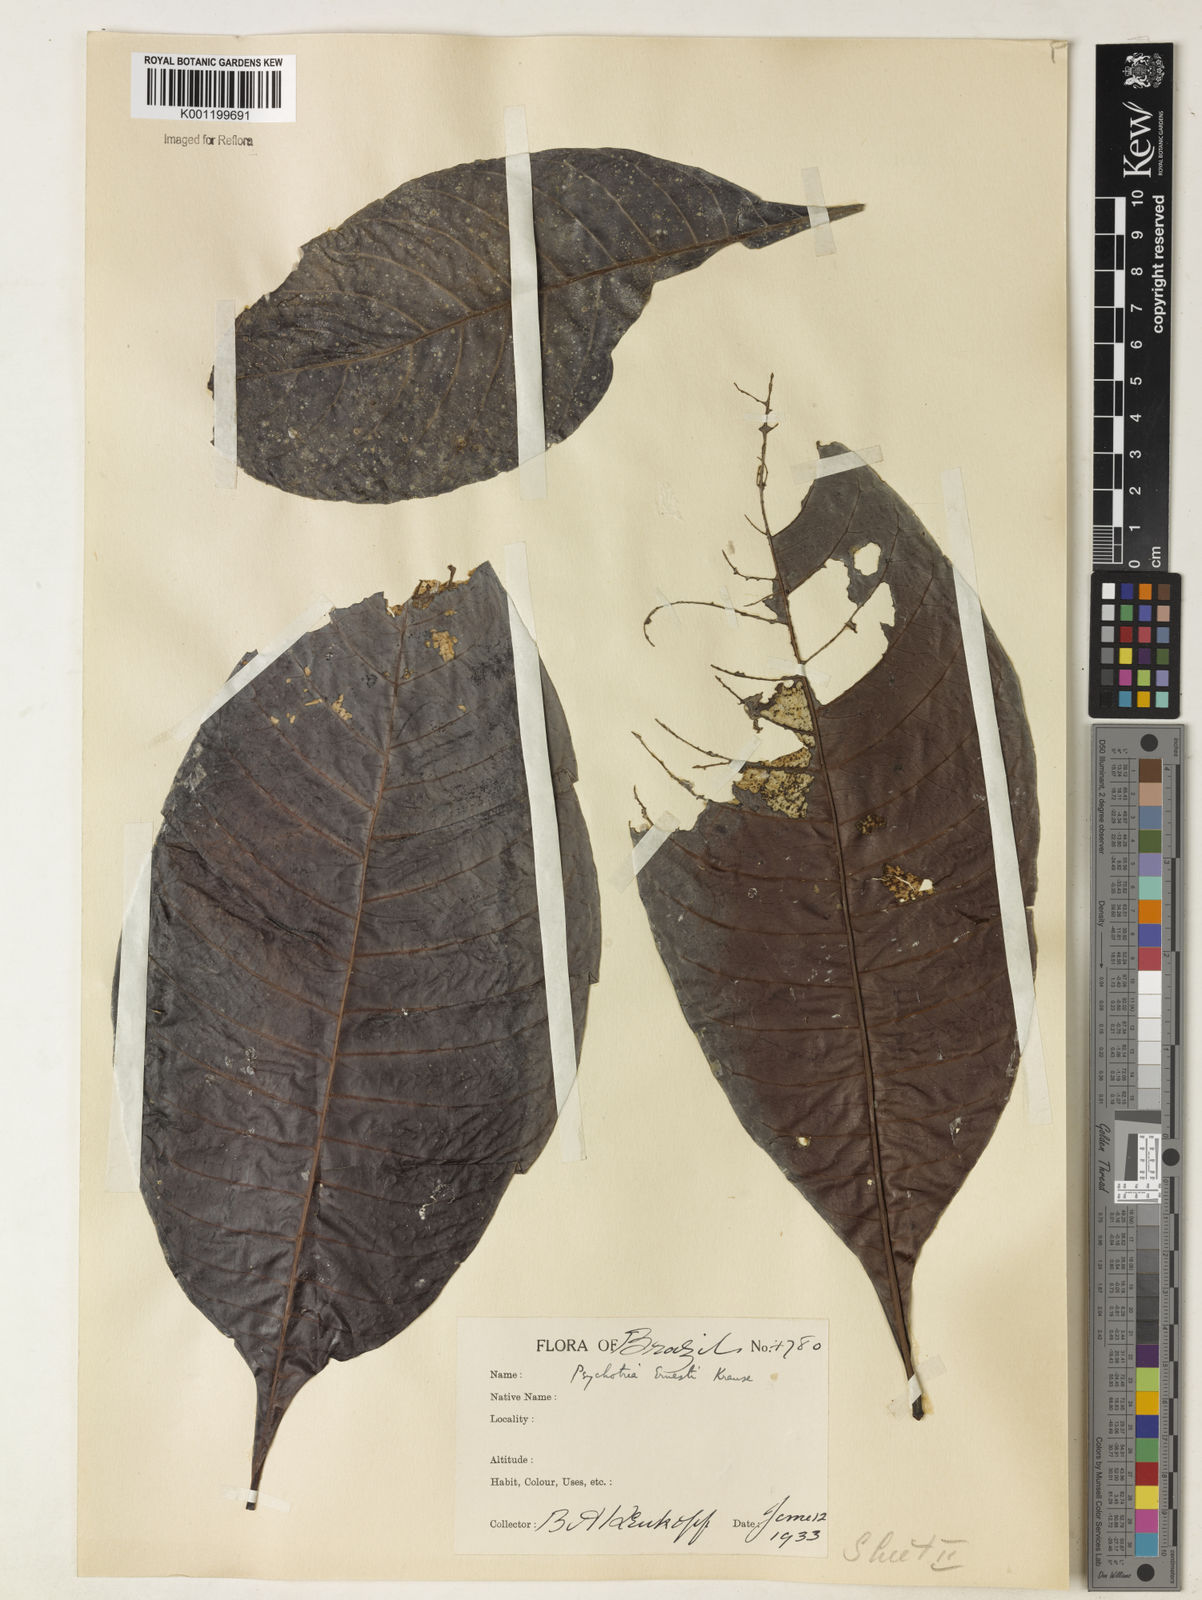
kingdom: Plantae
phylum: Tracheophyta
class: Magnoliopsida
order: Gentianales
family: Rubiaceae
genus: Psychotria
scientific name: Psychotria guianensis
